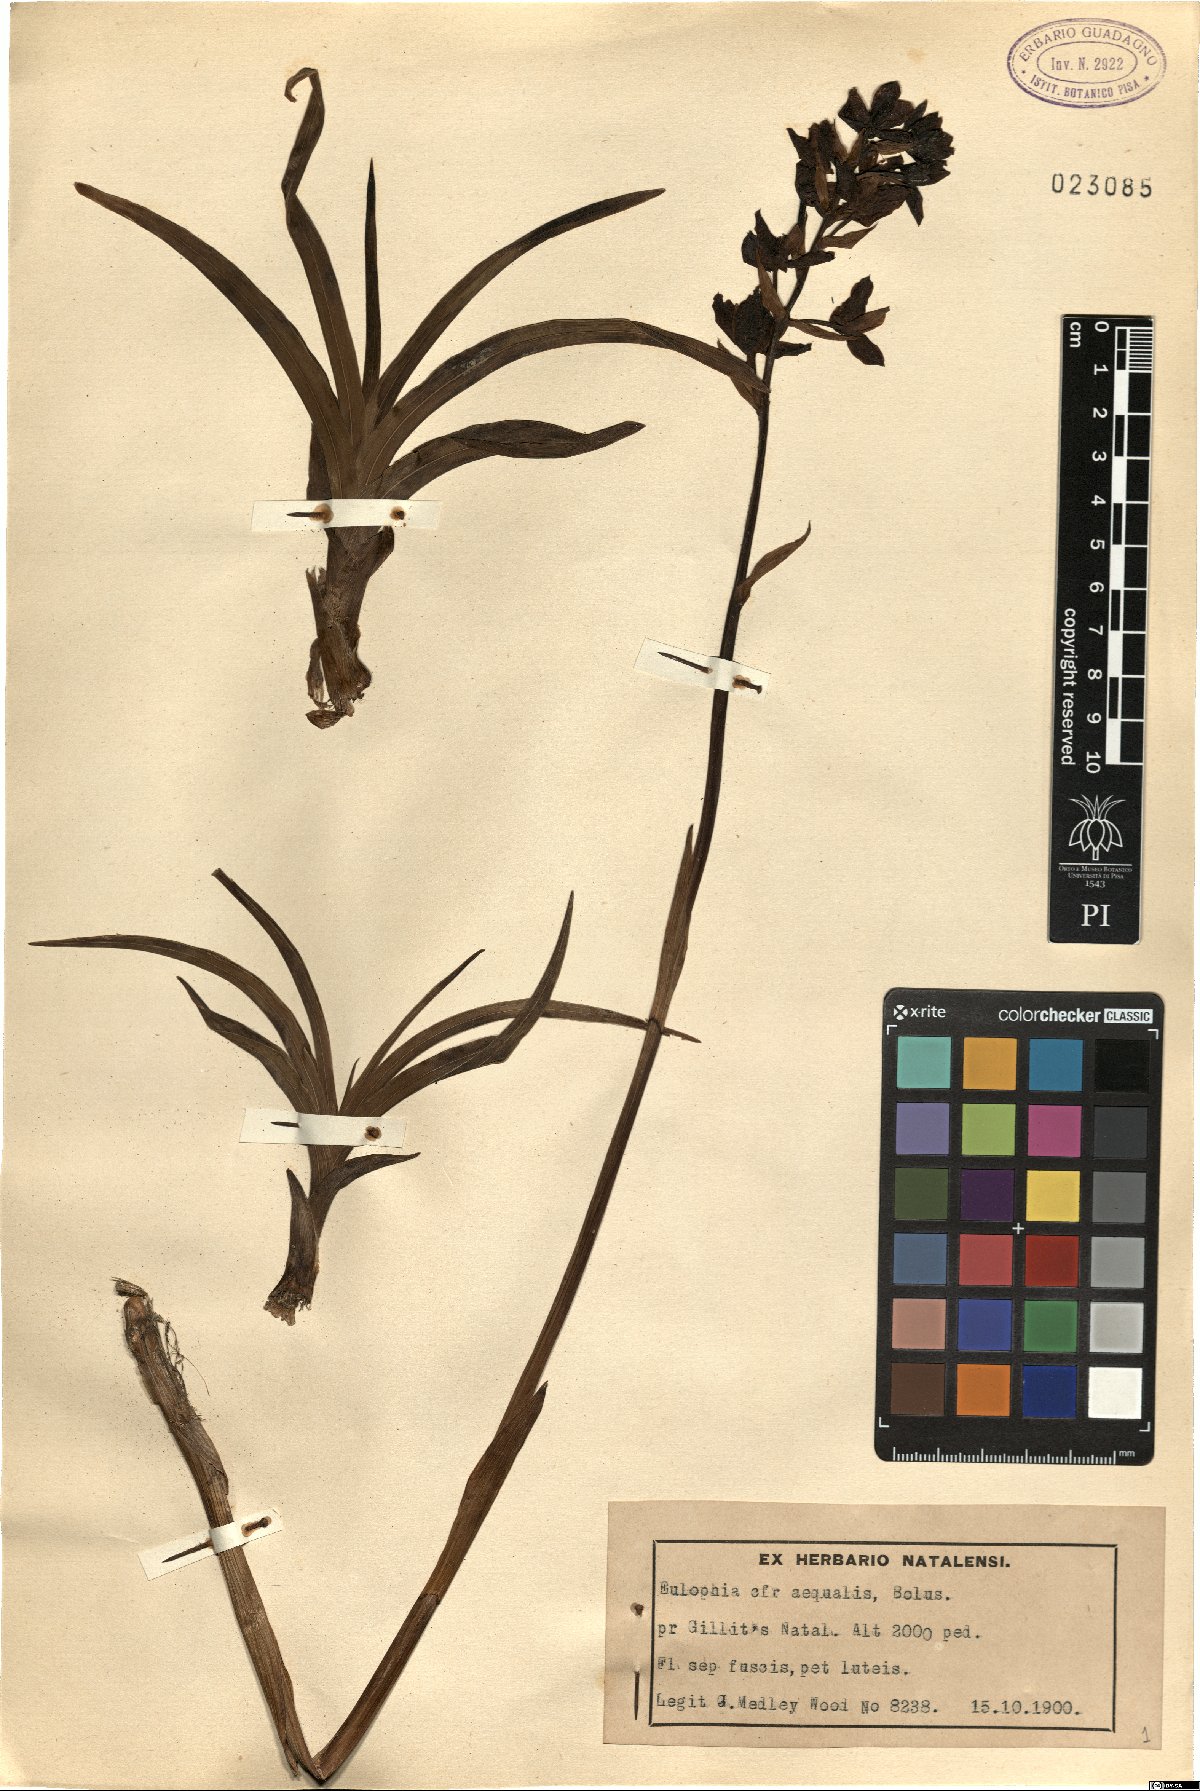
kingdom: Plantae
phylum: Tracheophyta
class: Liliopsida
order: Asparagales
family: Orchidaceae
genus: Eulophia
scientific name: Eulophia parviflora
